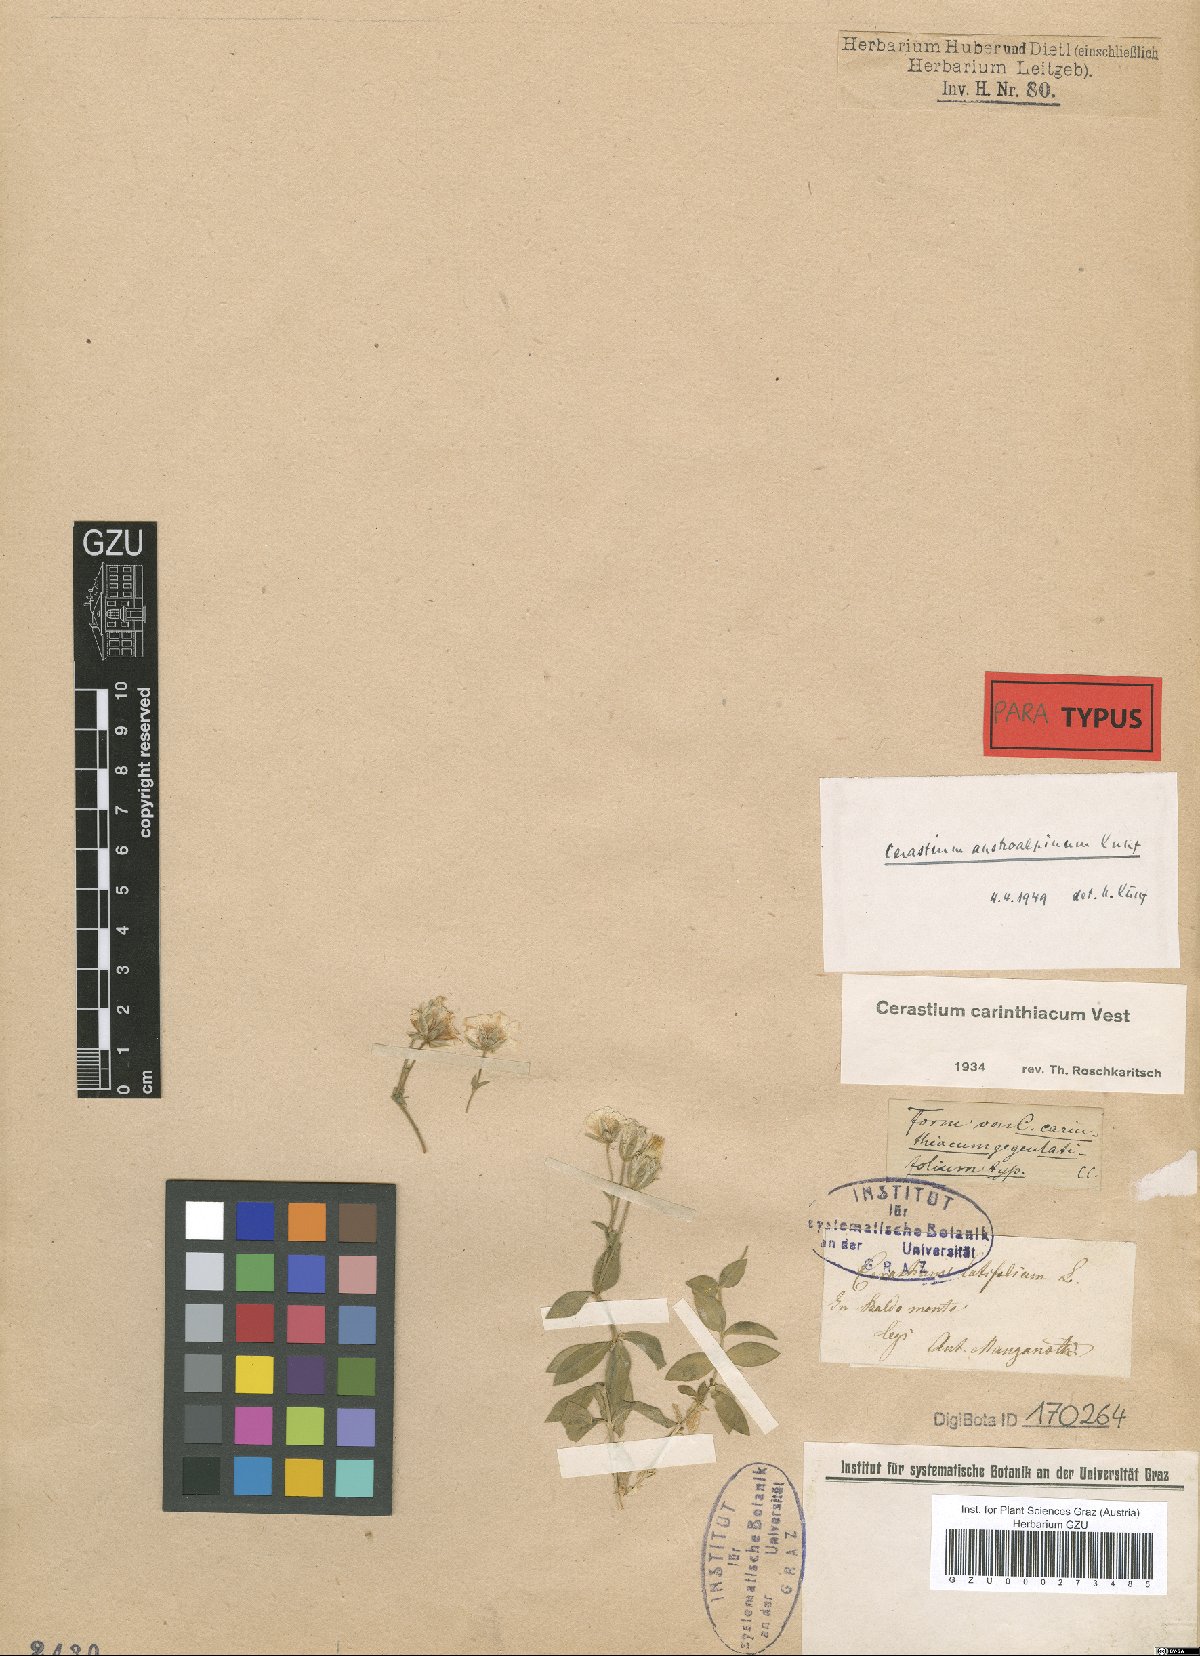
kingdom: Plantae
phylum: Tracheophyta
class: Magnoliopsida
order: Caryophyllales
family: Caryophyllaceae
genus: Cerastium
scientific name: Cerastium carinthiacum
